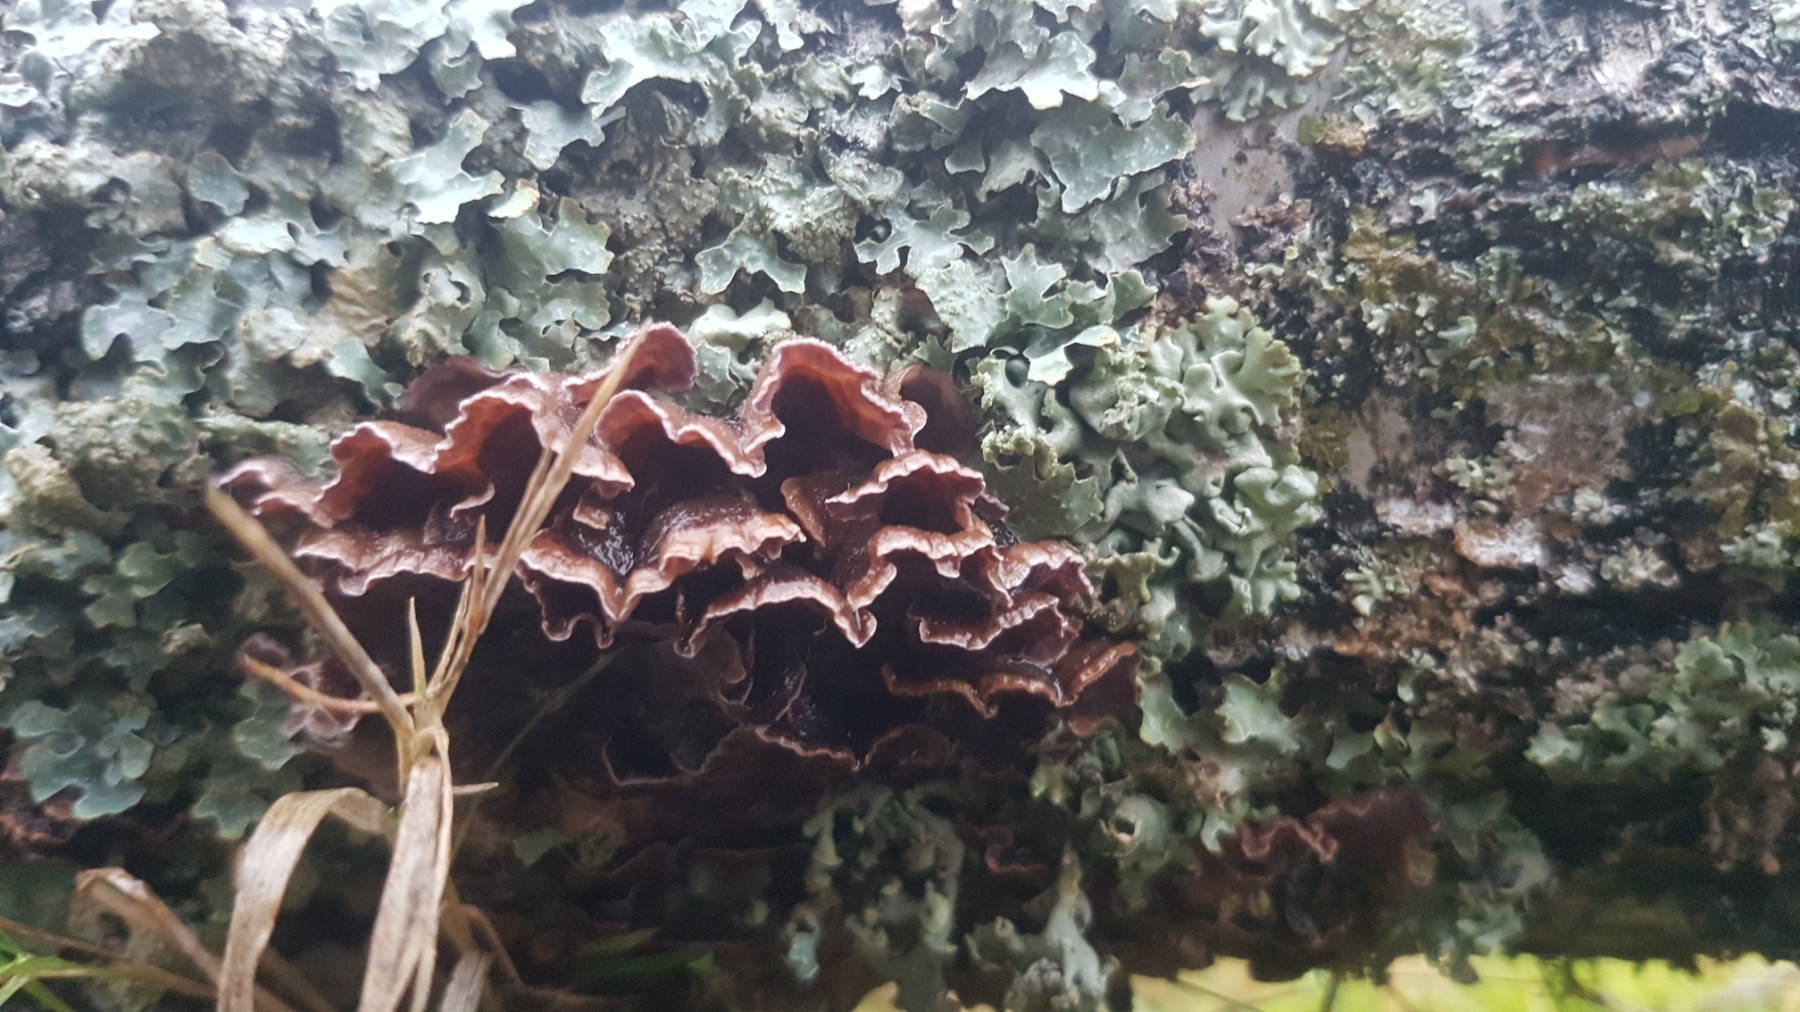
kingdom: Fungi
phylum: Basidiomycota
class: Agaricomycetes
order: Agaricales
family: Cyphellaceae
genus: Chondrostereum
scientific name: Chondrostereum purpureum
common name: purpurlædersvamp
